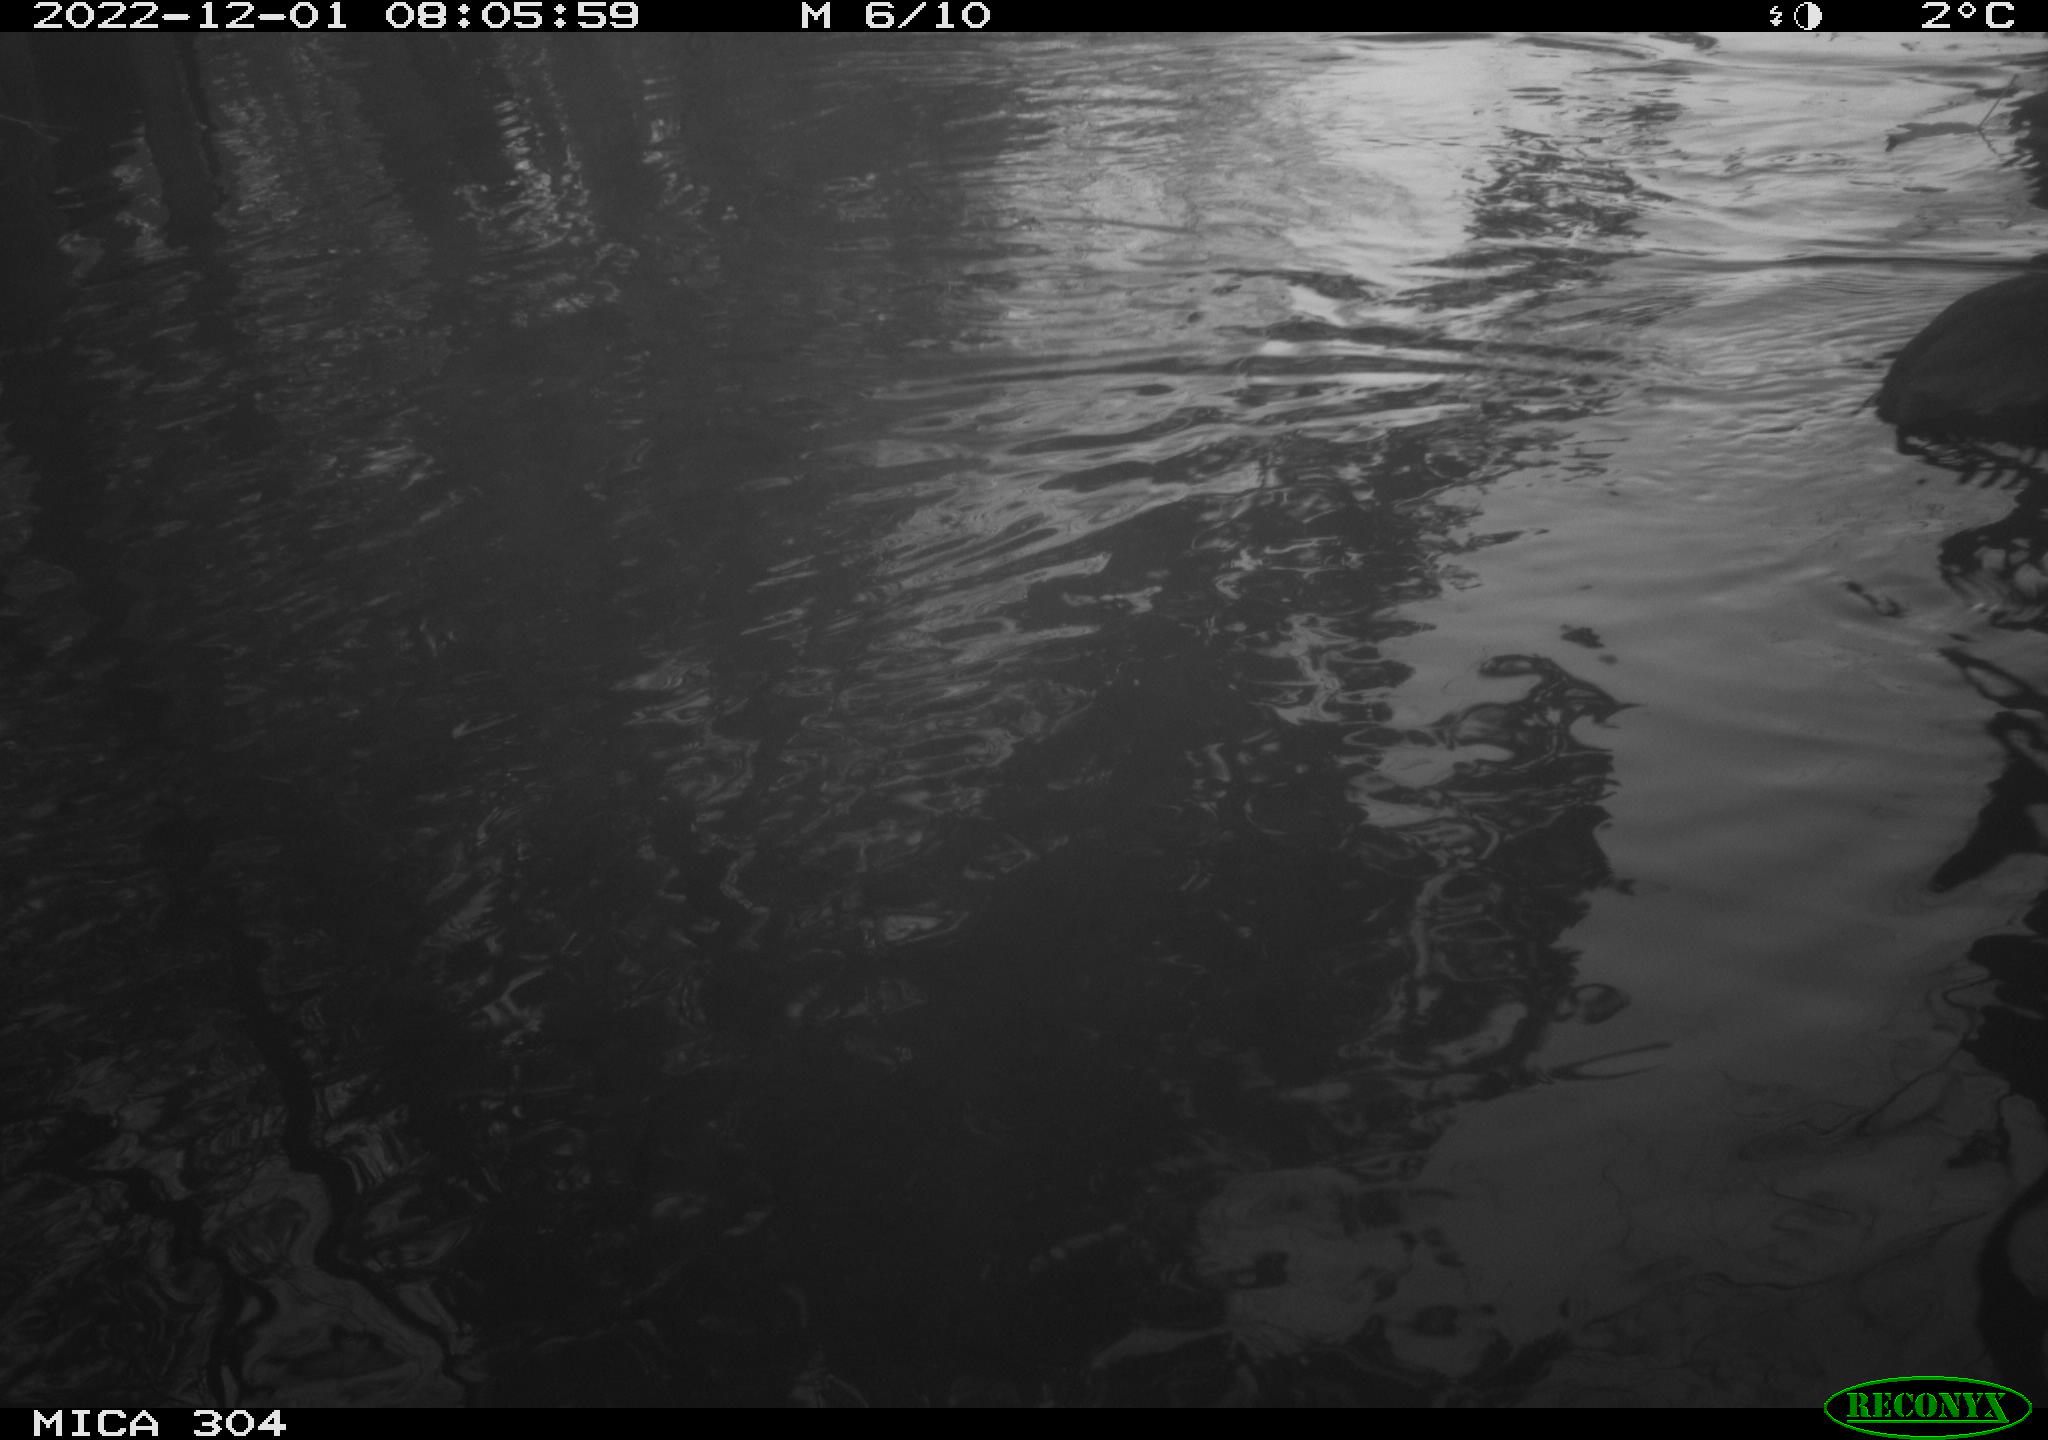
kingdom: Animalia
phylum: Chordata
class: Aves
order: Gruiformes
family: Rallidae
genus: Gallinula
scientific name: Gallinula chloropus
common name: Common moorhen
